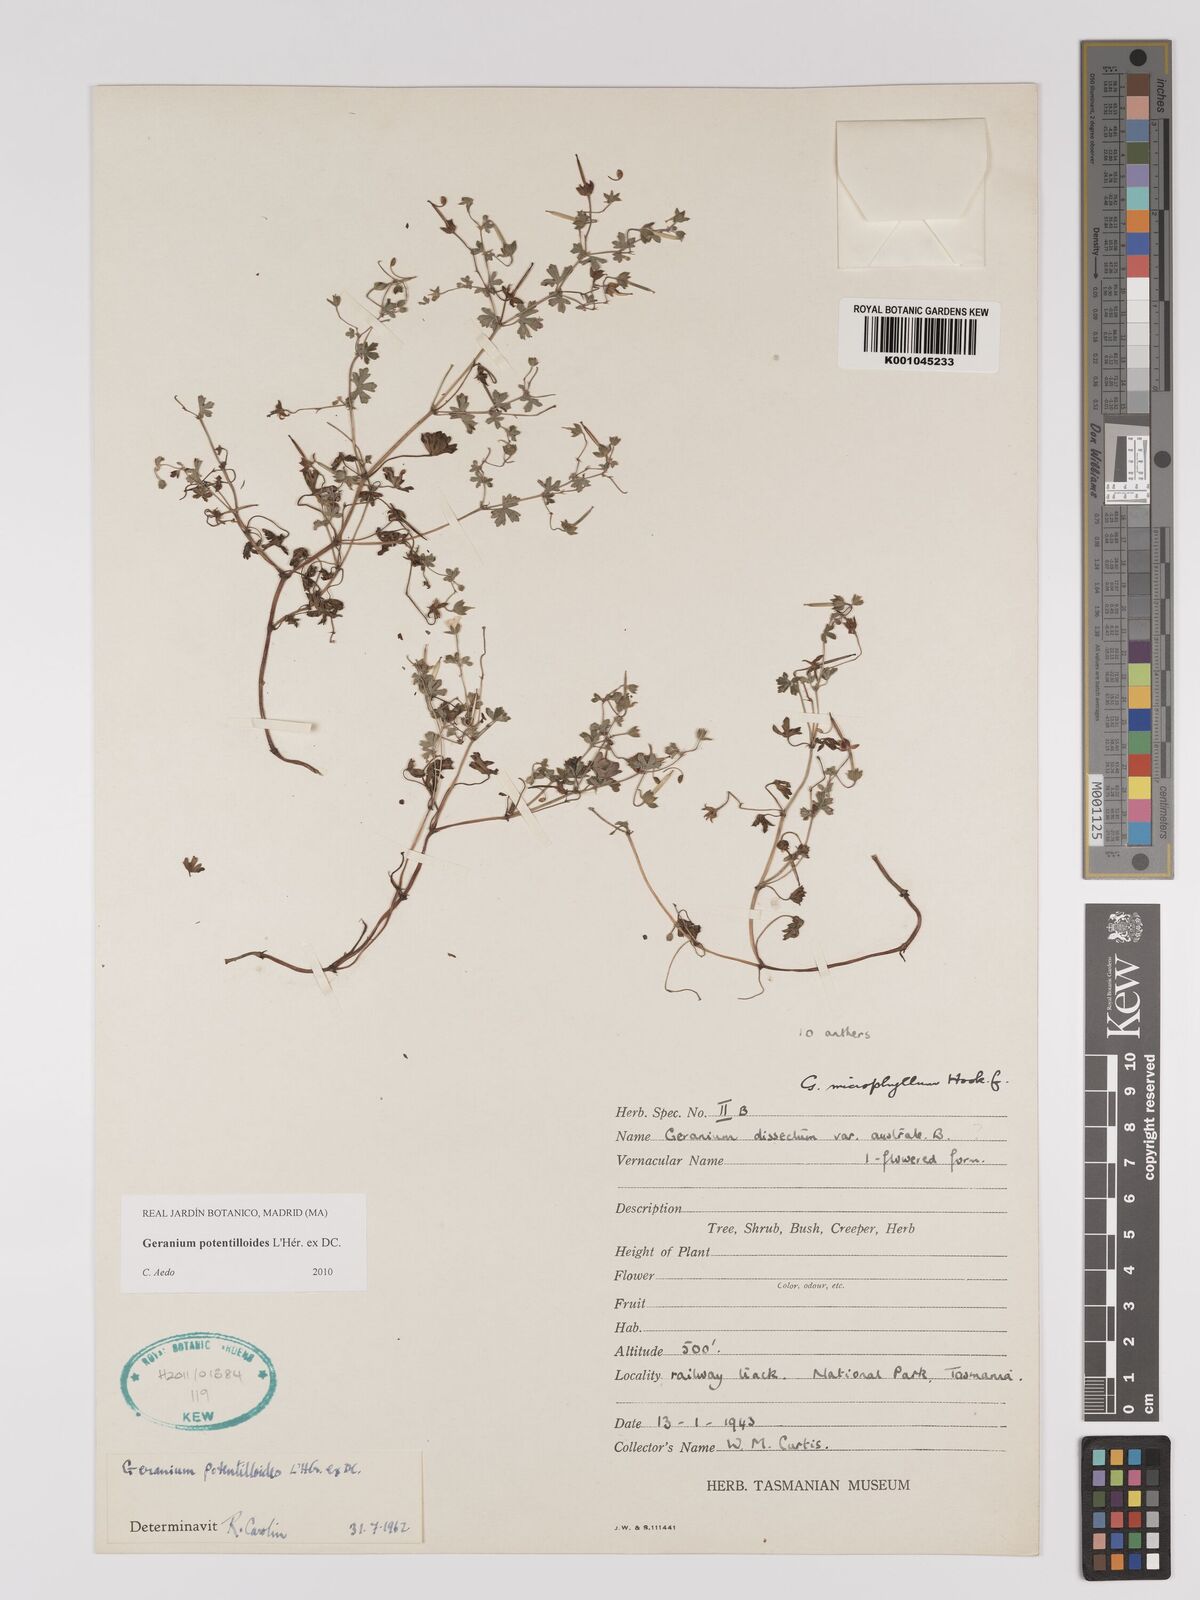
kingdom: Plantae
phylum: Tracheophyta
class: Magnoliopsida
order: Geraniales
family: Geraniaceae
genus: Geranium
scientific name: Geranium potentilloides
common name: Cinquefoil geranium
